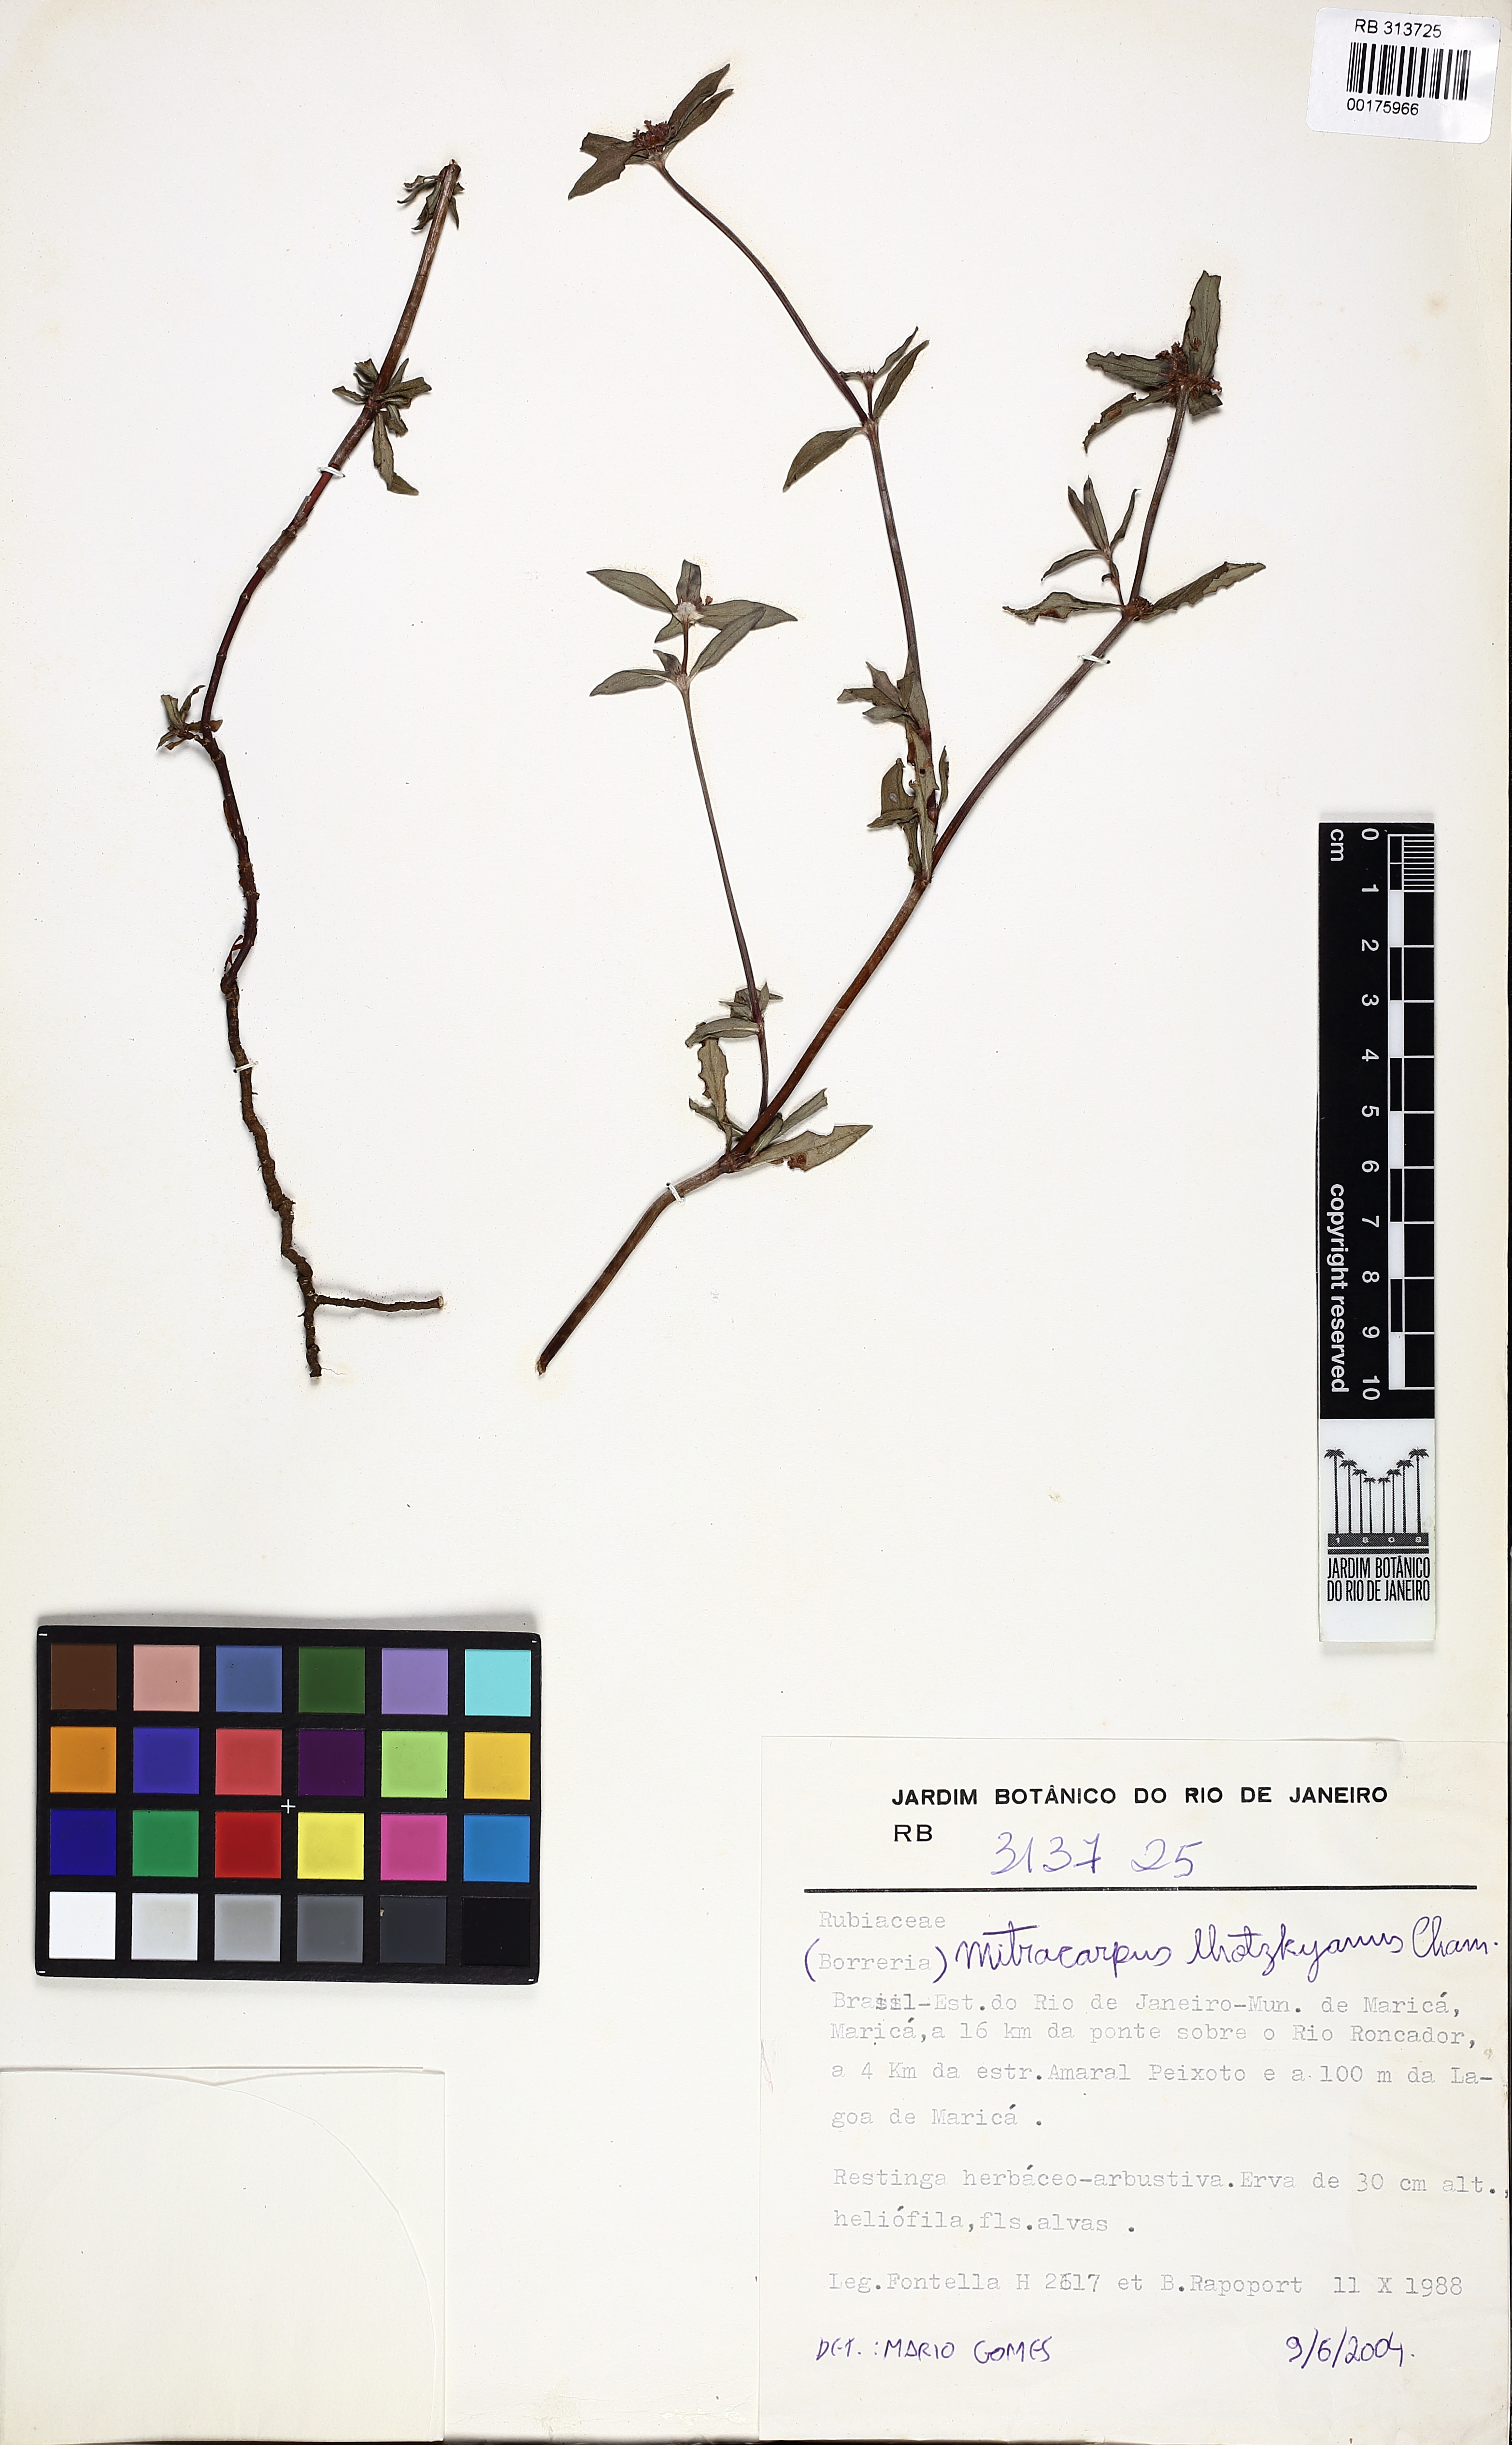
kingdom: Plantae
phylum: Tracheophyta
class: Magnoliopsida
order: Gentianales
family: Rubiaceae
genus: Mitracarpus
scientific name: Mitracarpus lhotzkyanus
